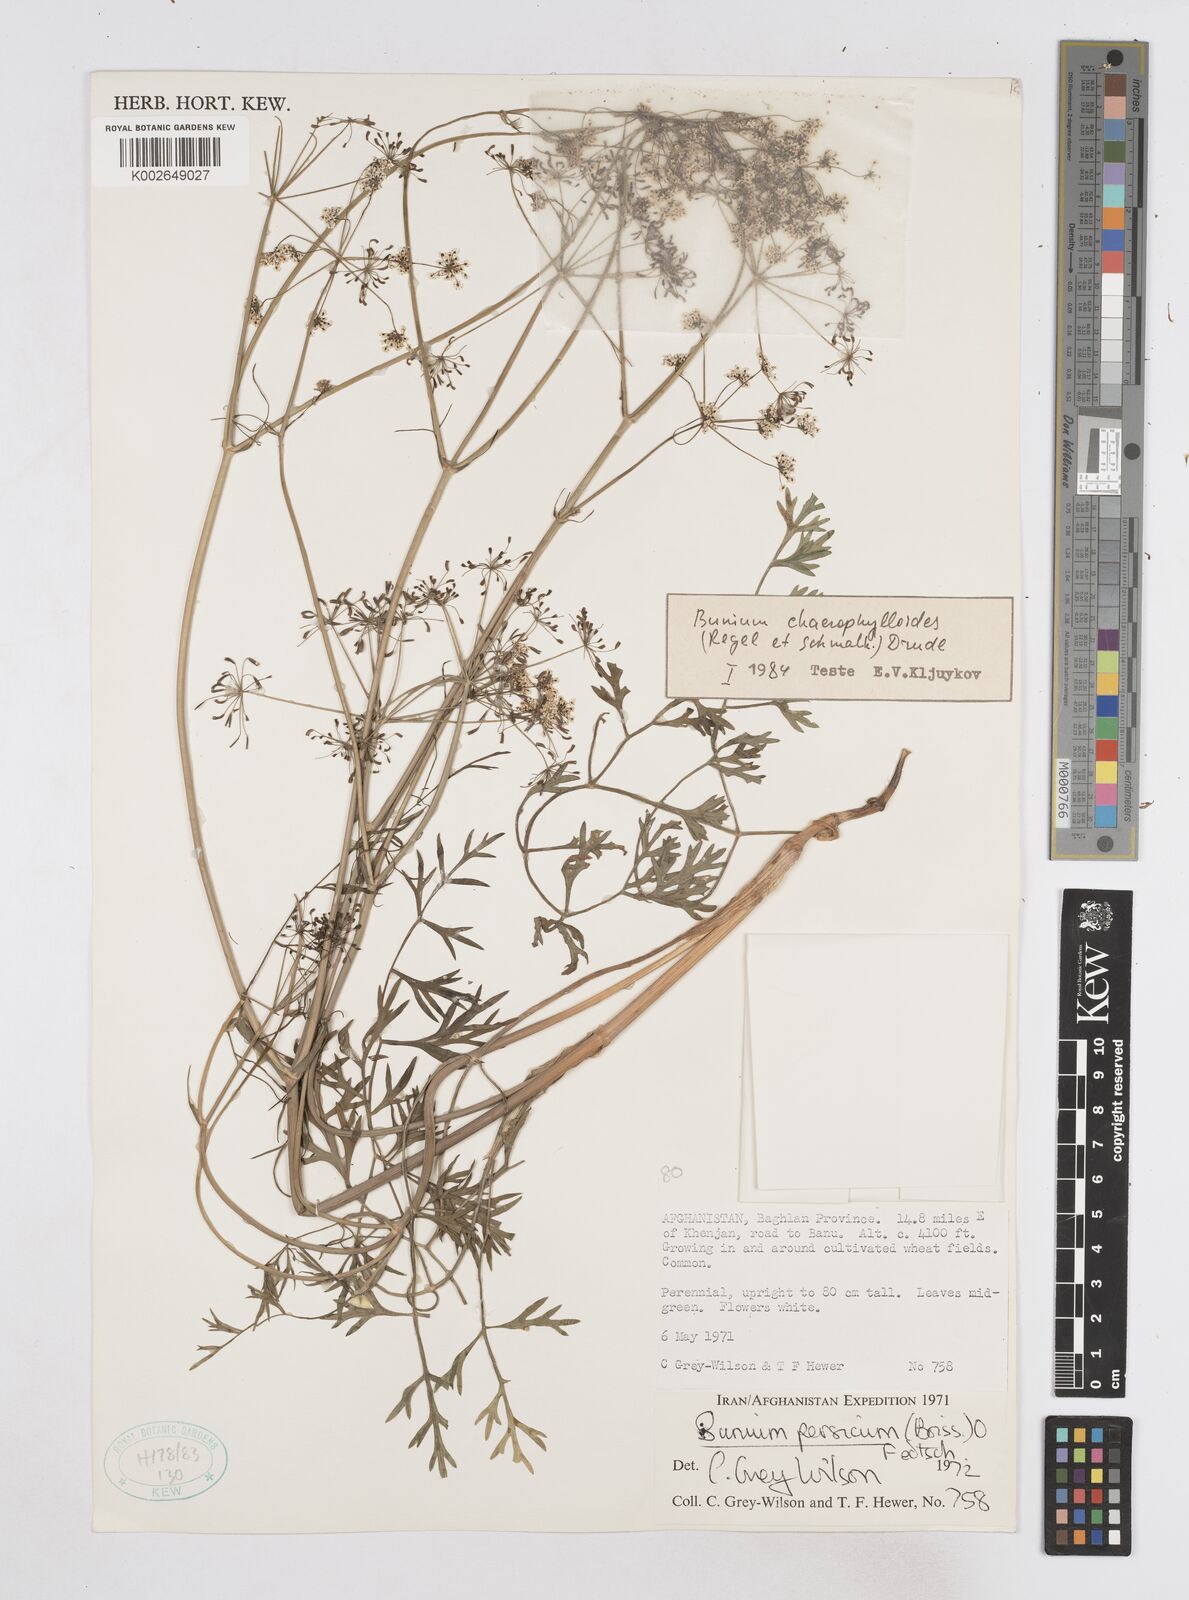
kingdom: Plantae
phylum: Tracheophyta
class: Magnoliopsida
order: Apiales
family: Apiaceae
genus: Elwendia
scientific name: Elwendia chaerophylloides
